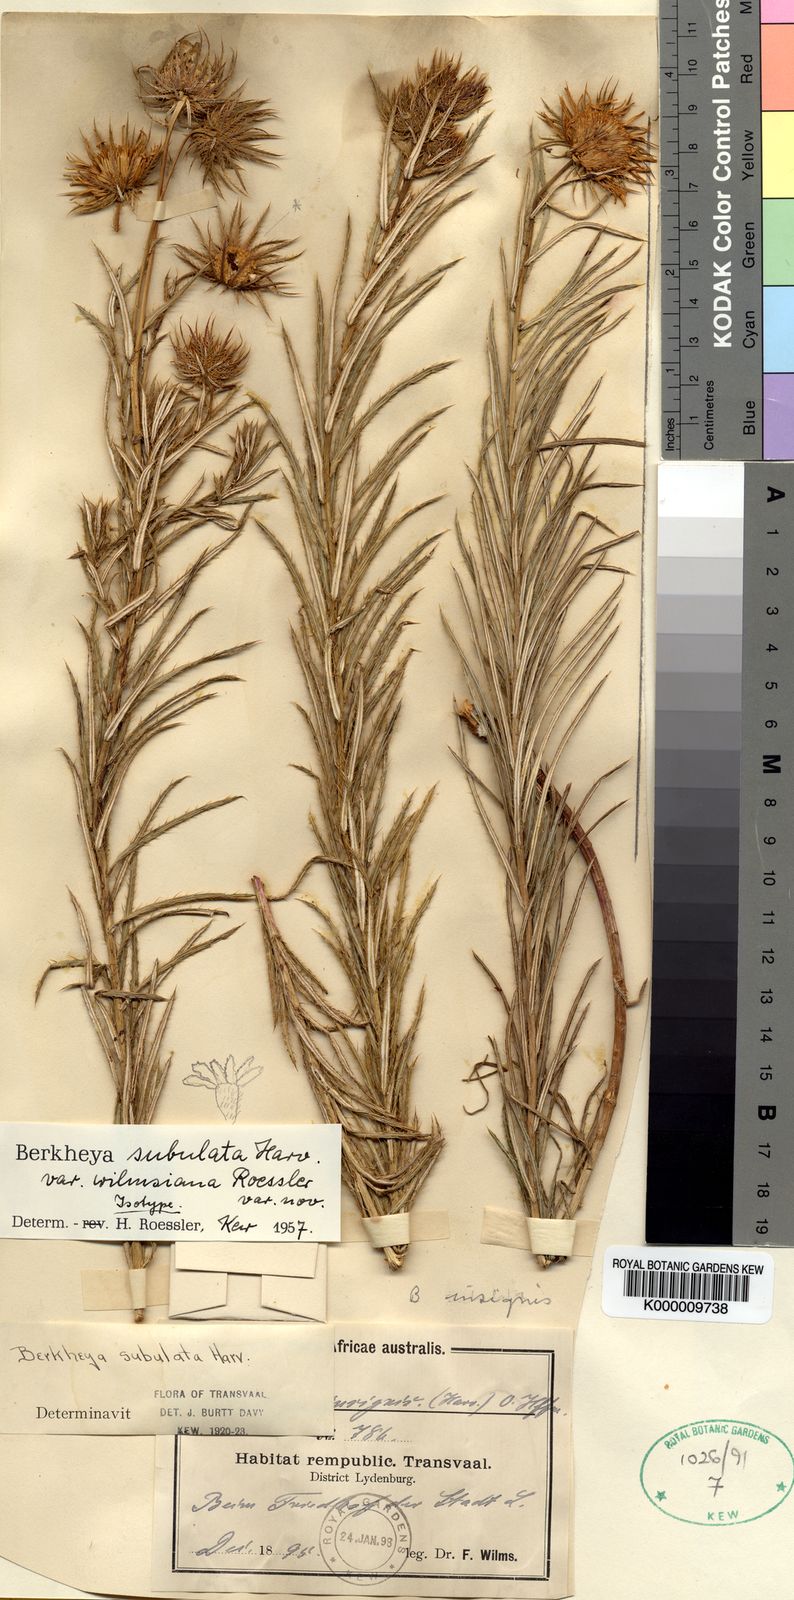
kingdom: Plantae
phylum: Tracheophyta
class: Magnoliopsida
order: Asterales
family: Asteraceae
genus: Berkheya
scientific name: Berkheya subulata
